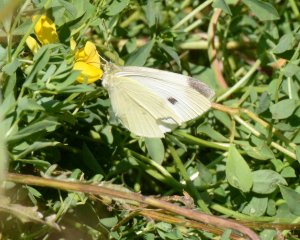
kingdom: Animalia
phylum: Arthropoda
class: Insecta
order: Lepidoptera
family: Pieridae
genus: Pieris
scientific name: Pieris rapae
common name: Cabbage White
